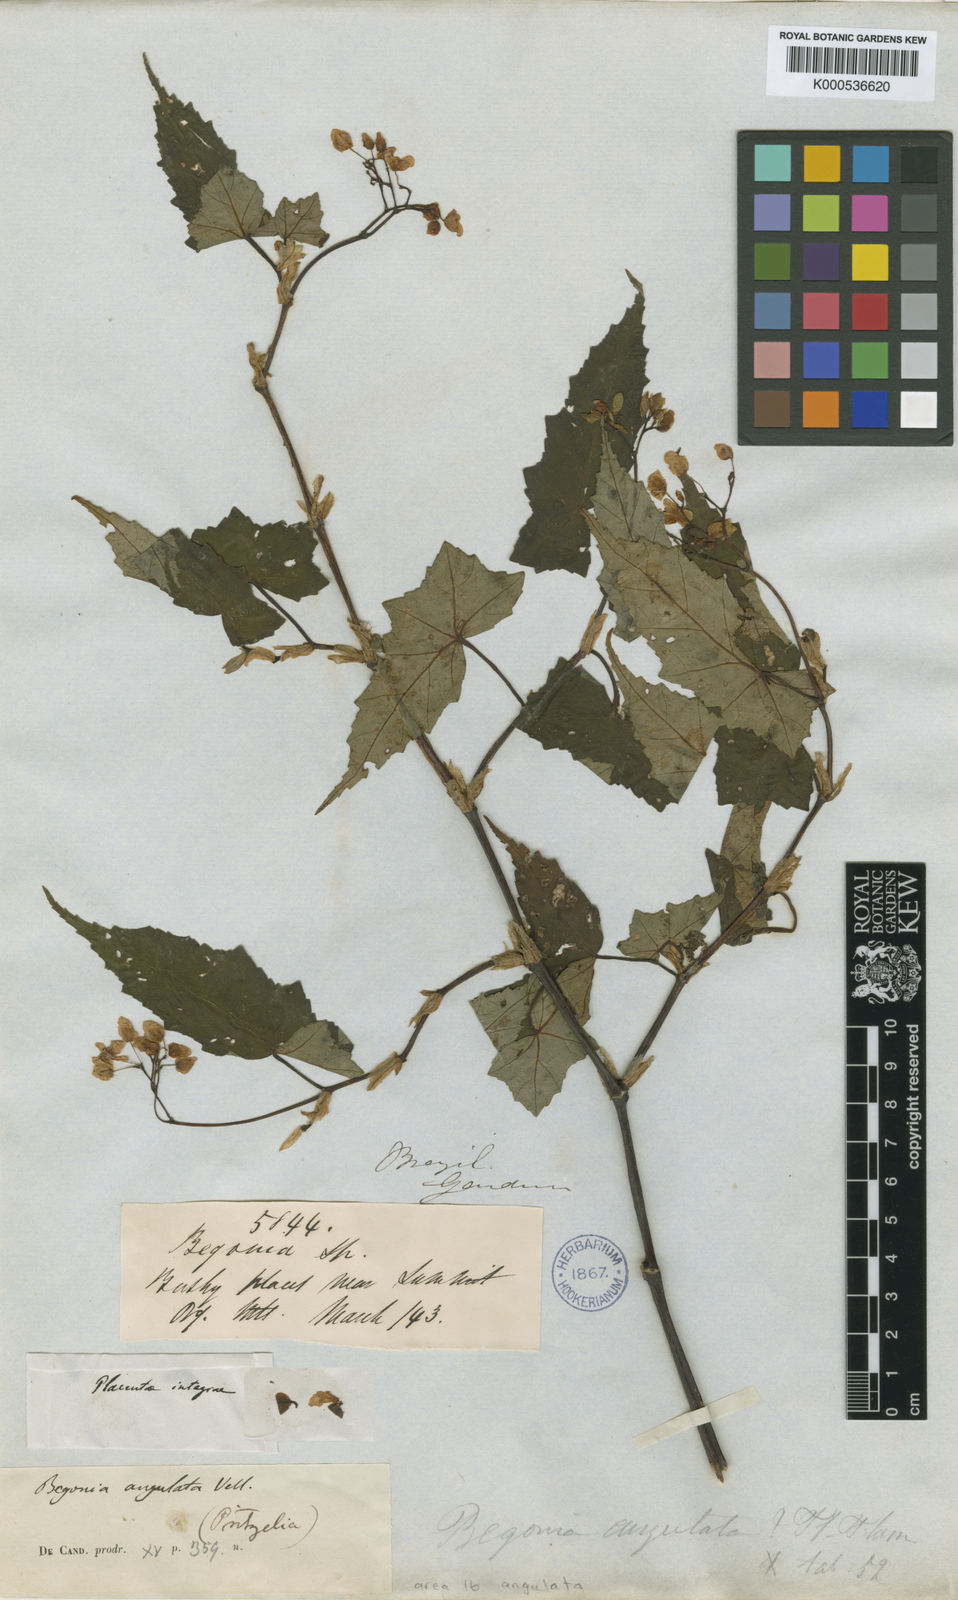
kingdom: Plantae
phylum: Tracheophyta
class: Magnoliopsida
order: Cucurbitales
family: Begoniaceae
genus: Begonia
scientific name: Begonia angulata
